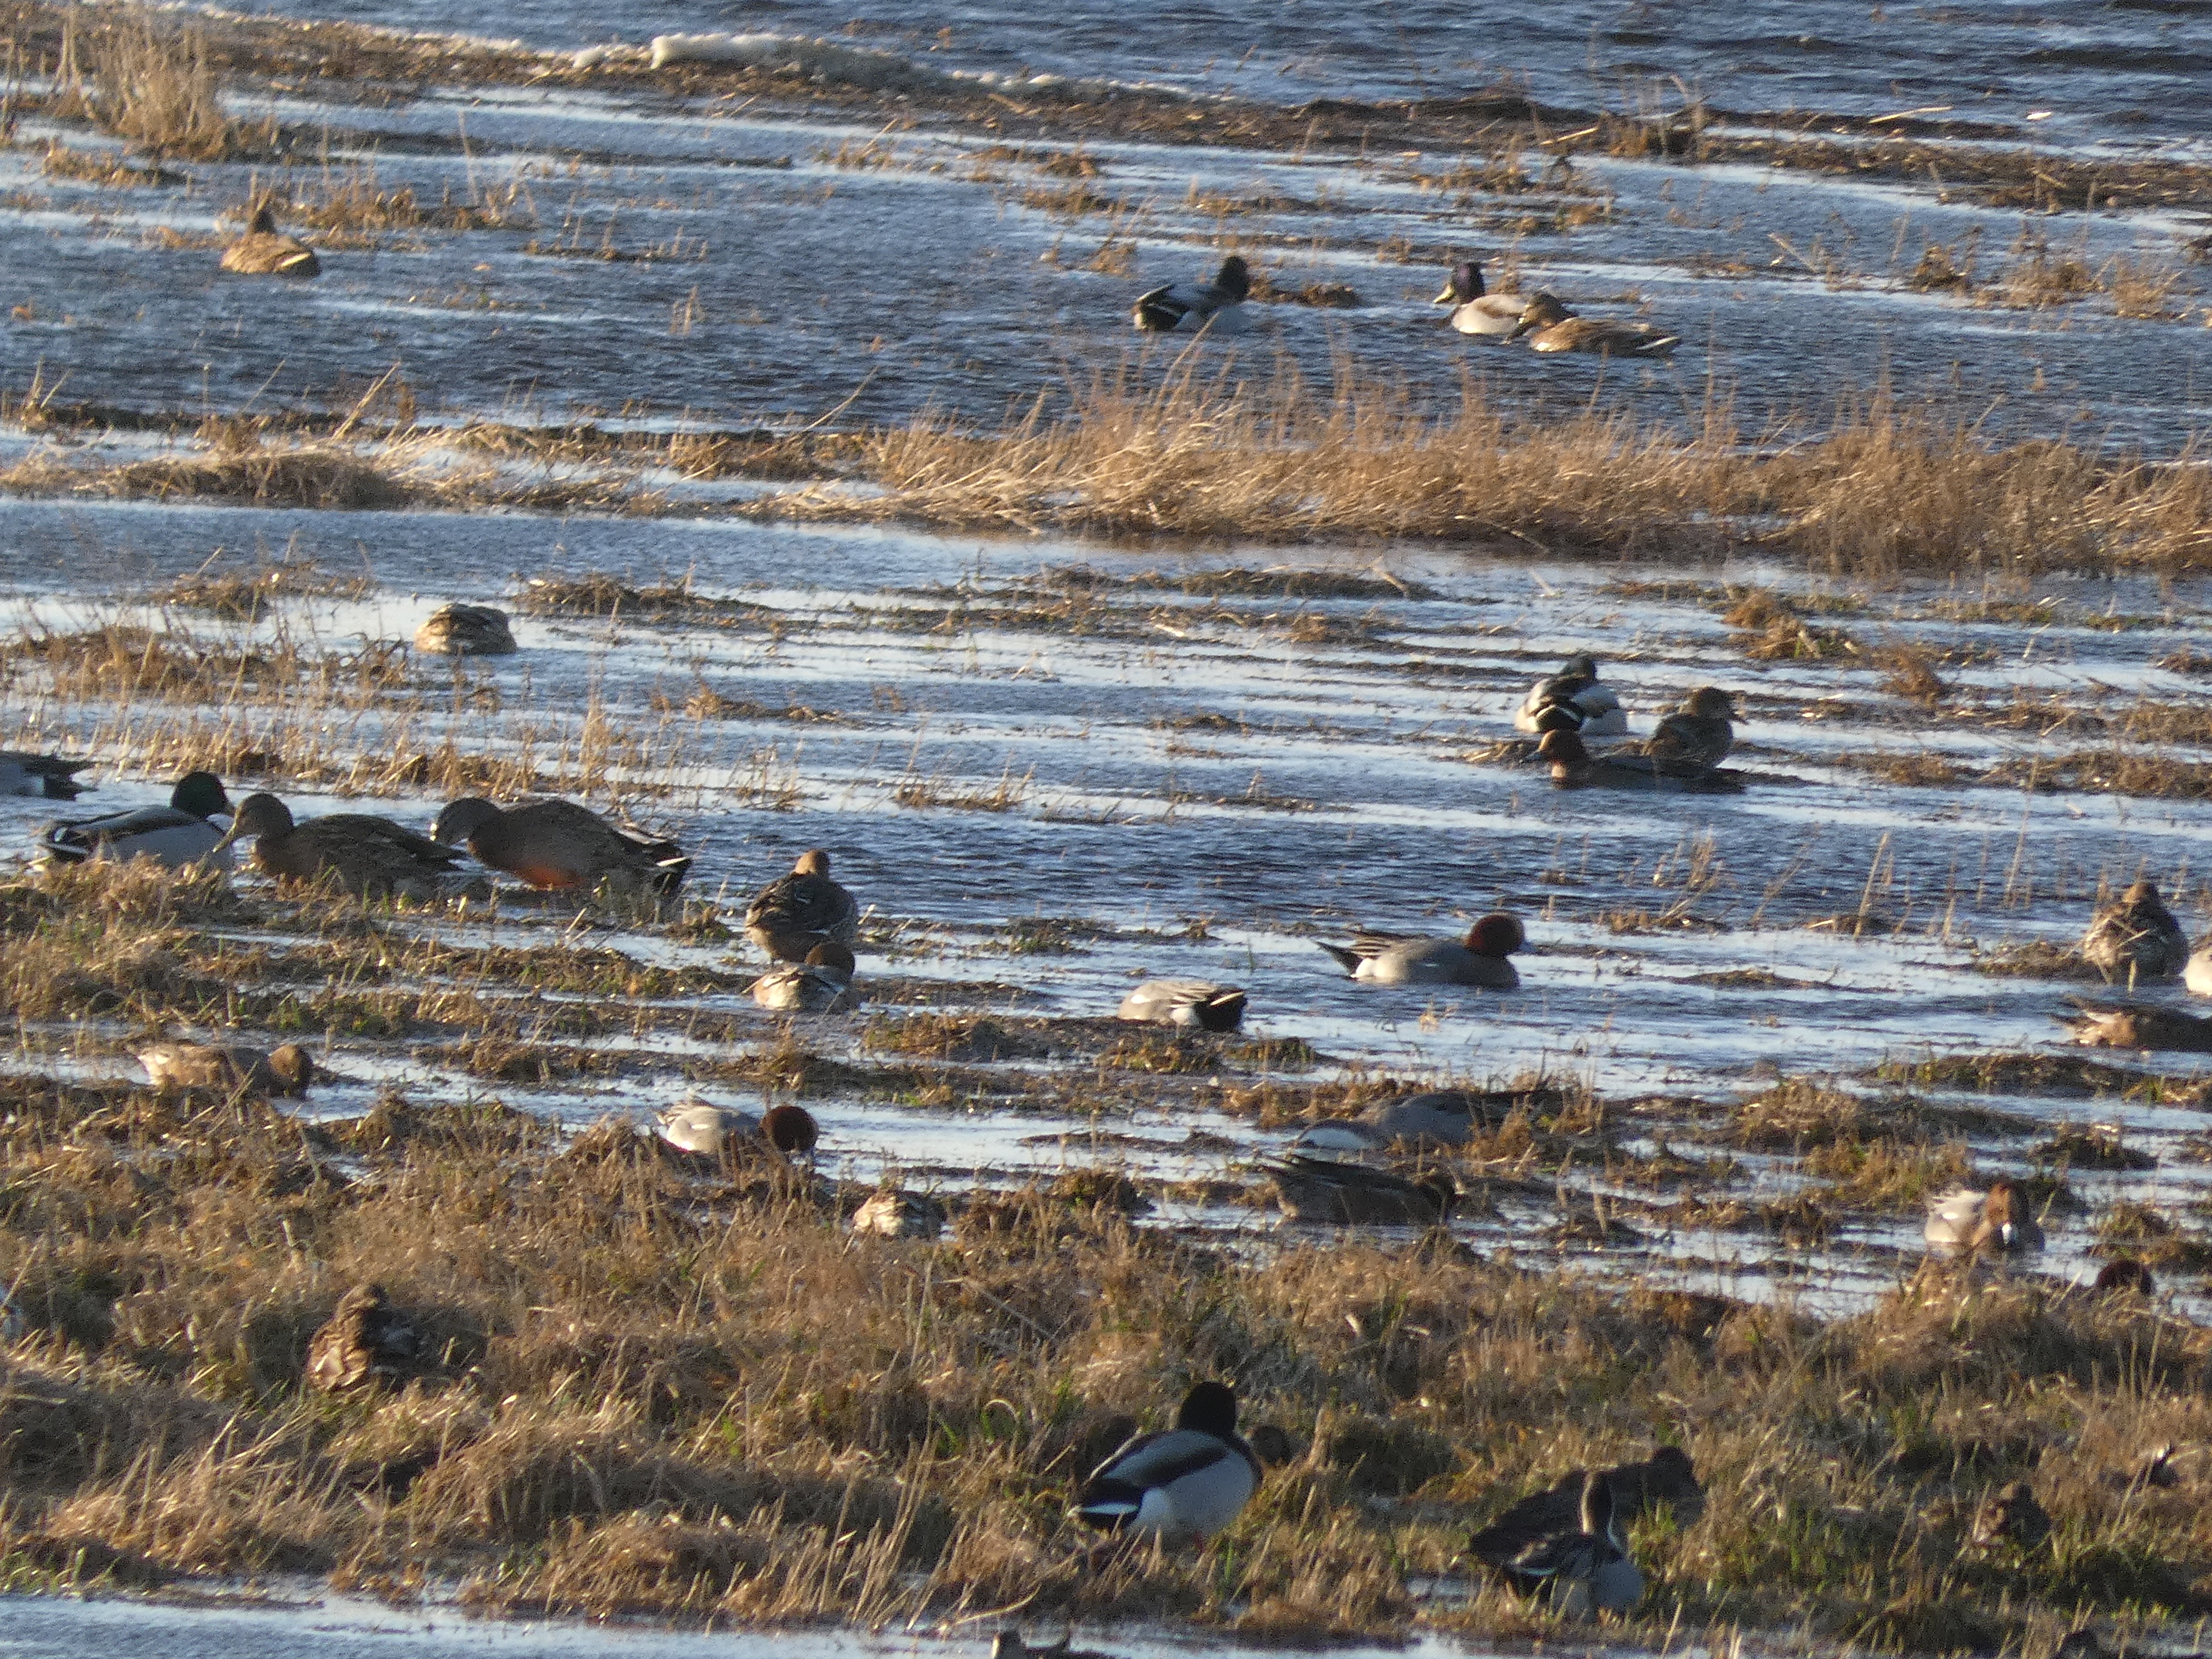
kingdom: Animalia
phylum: Chordata
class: Aves
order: Anseriformes
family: Anatidae
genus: Mareca
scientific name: Mareca penelope
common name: Pibeand
